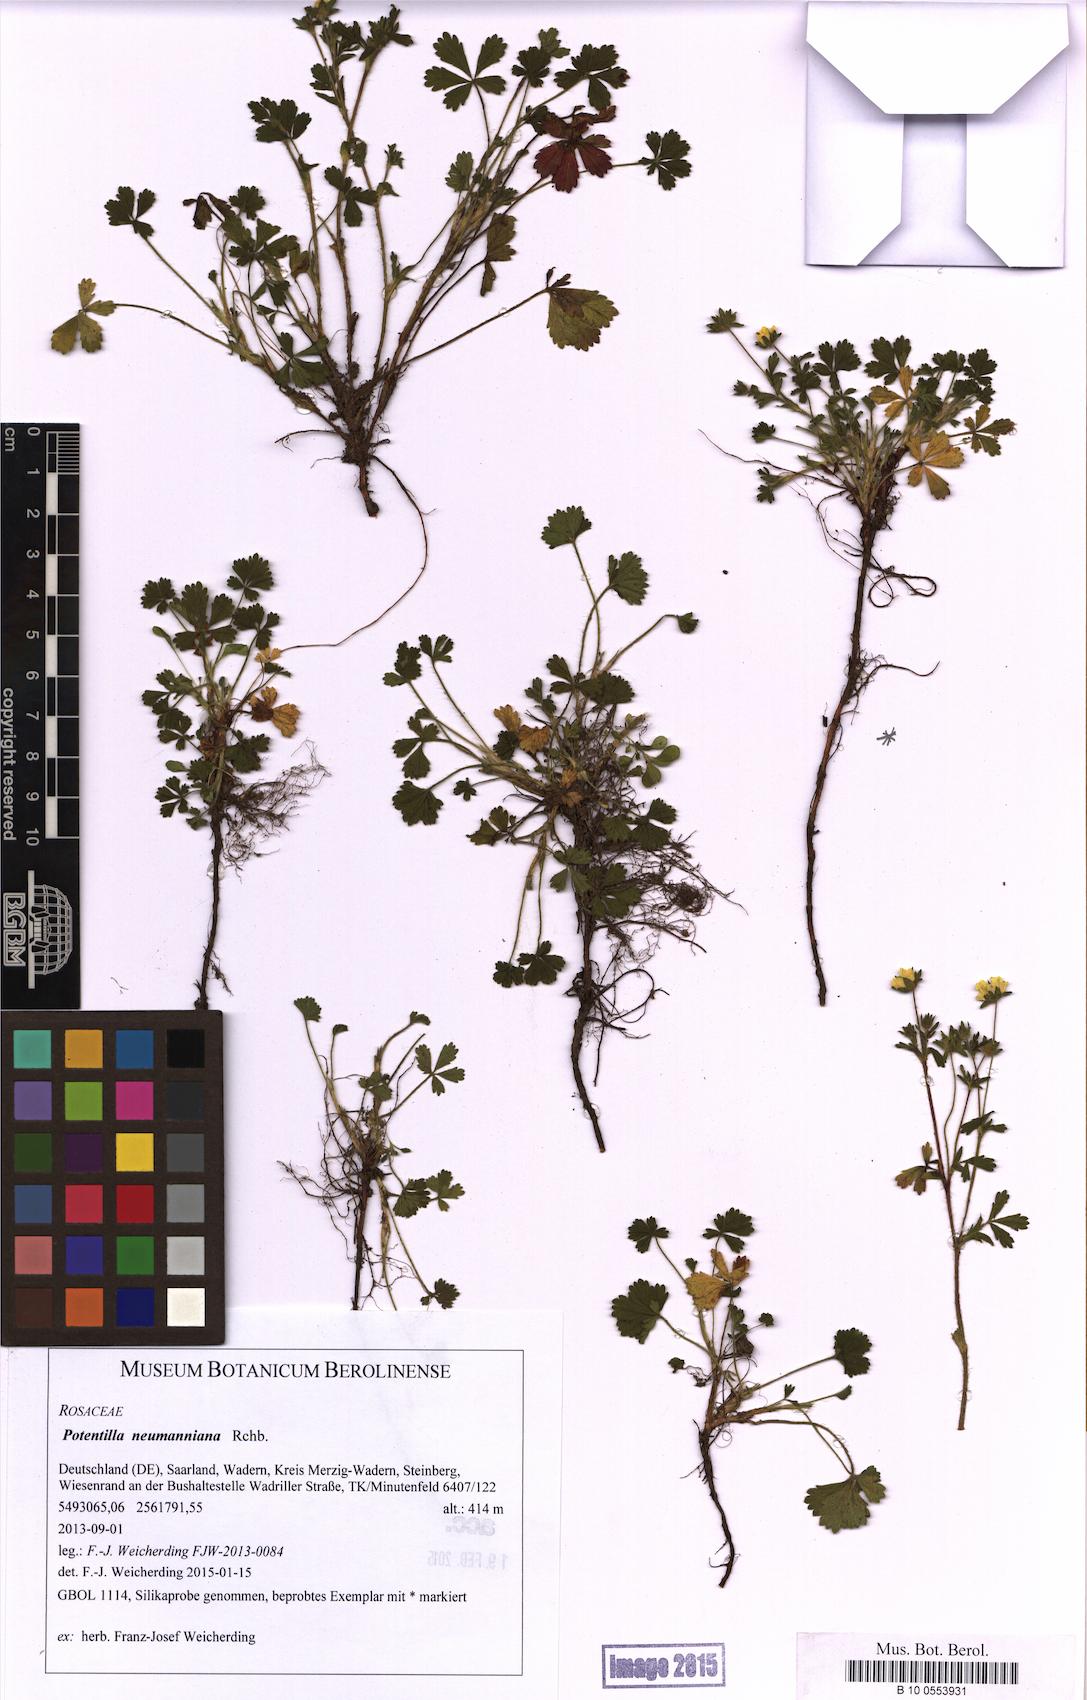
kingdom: Plantae
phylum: Tracheophyta
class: Magnoliopsida
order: Rosales
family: Rosaceae
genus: Potentilla
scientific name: Potentilla verna
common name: Spring cinquefoil
